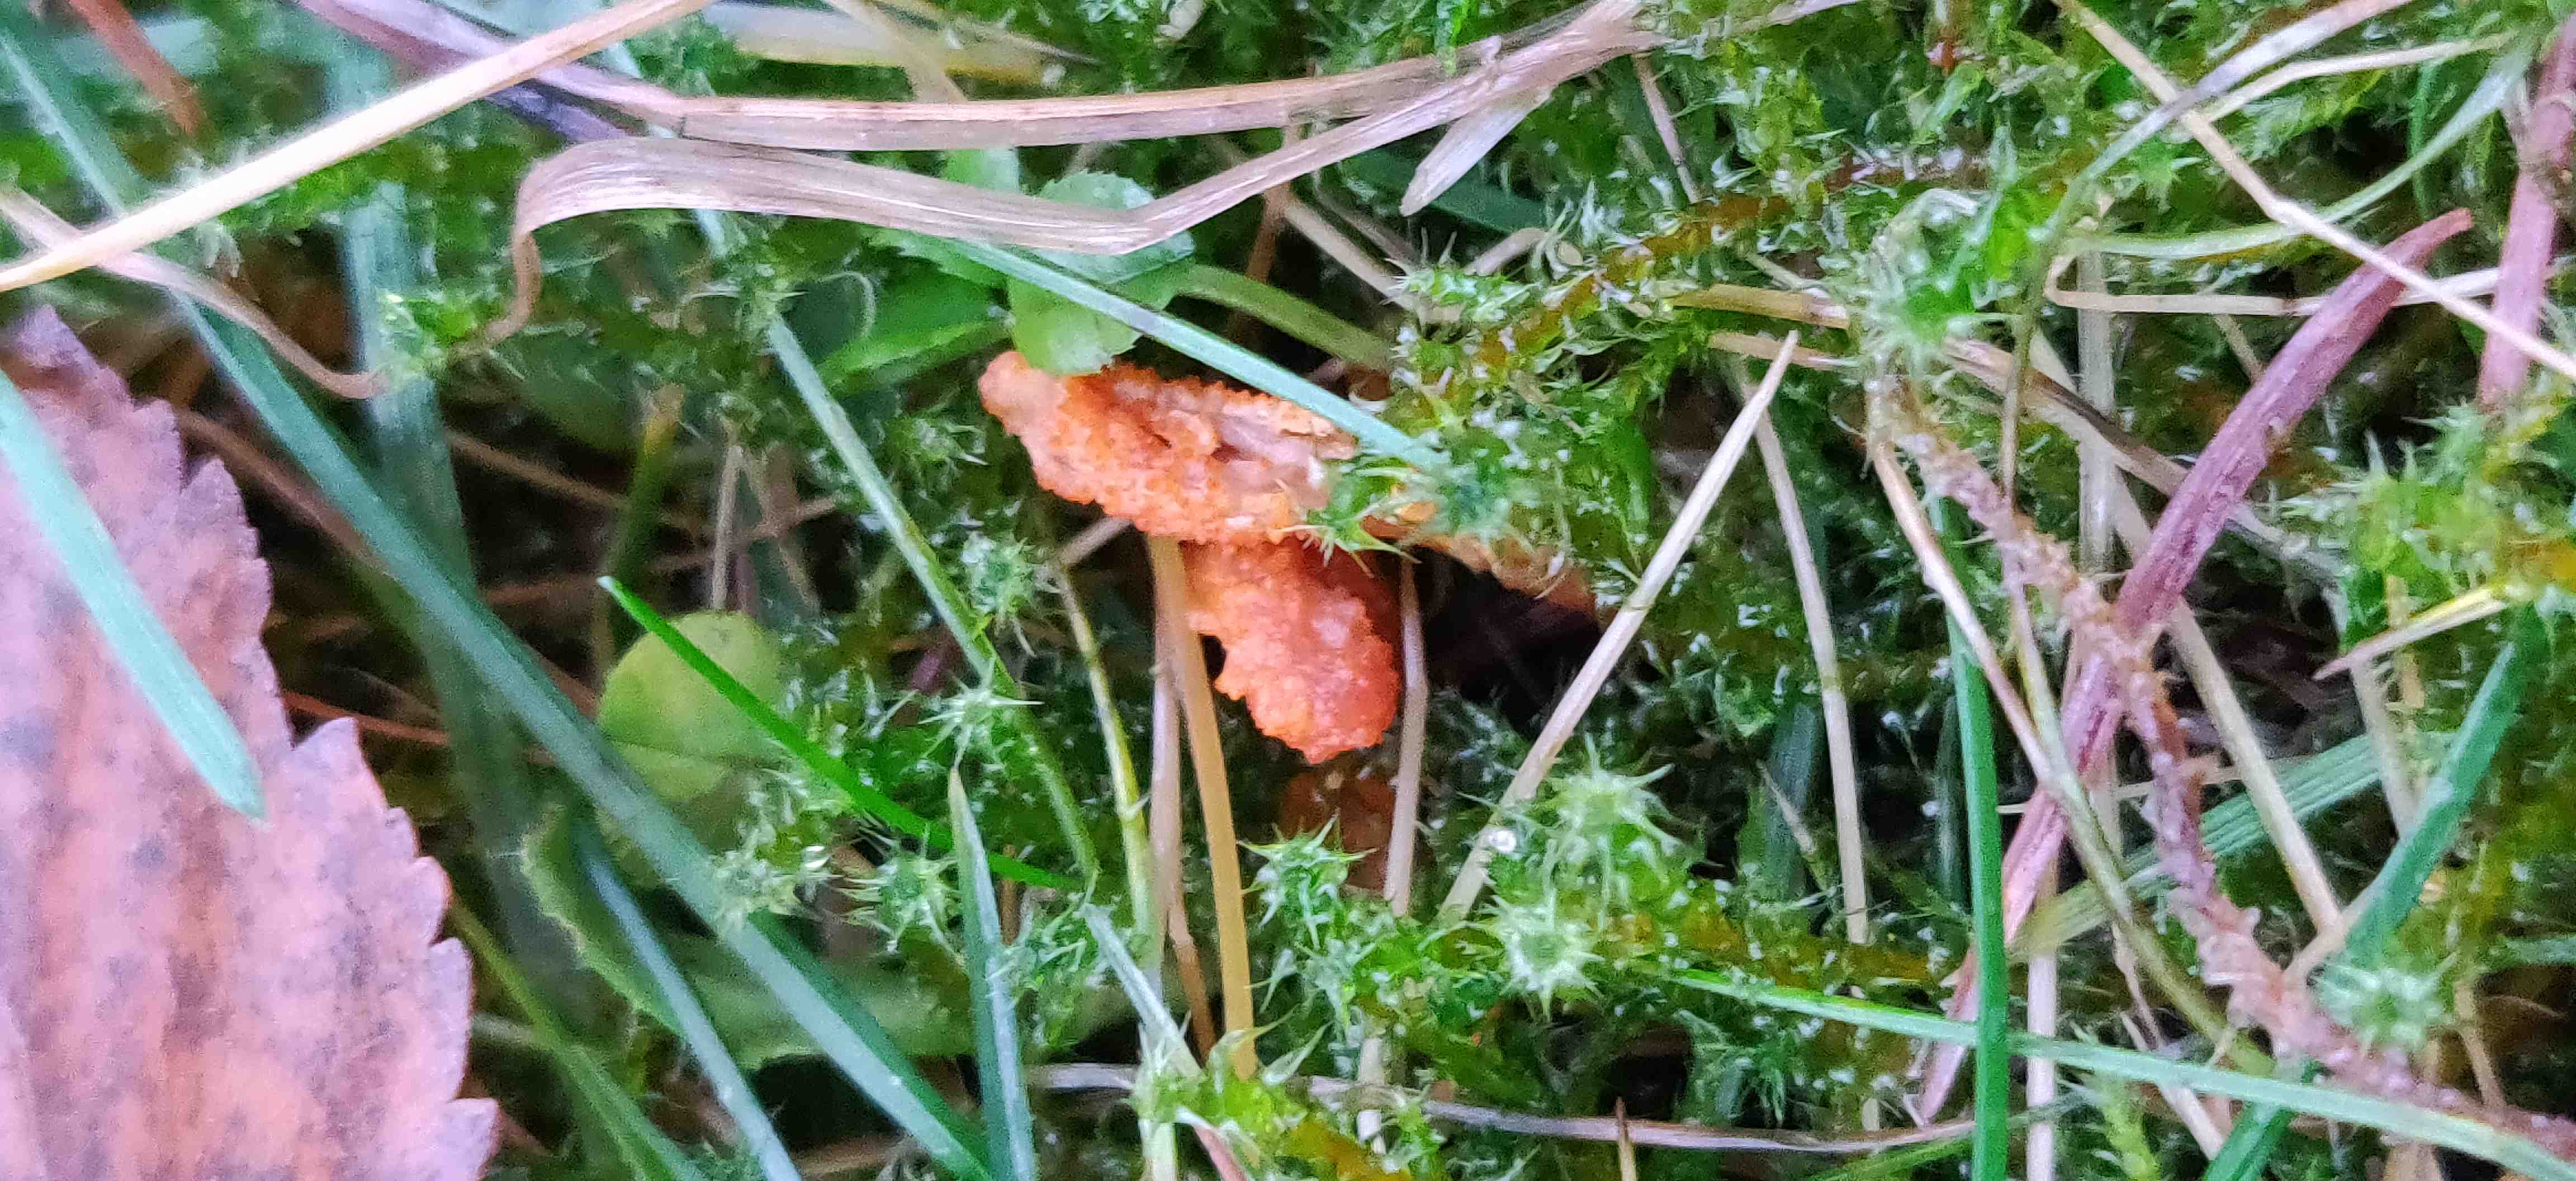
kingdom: Fungi
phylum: Ascomycota
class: Sordariomycetes
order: Hypocreales
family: Cordycipitaceae
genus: Cordyceps
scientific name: Cordyceps militaris
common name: puppe-snyltekølle
